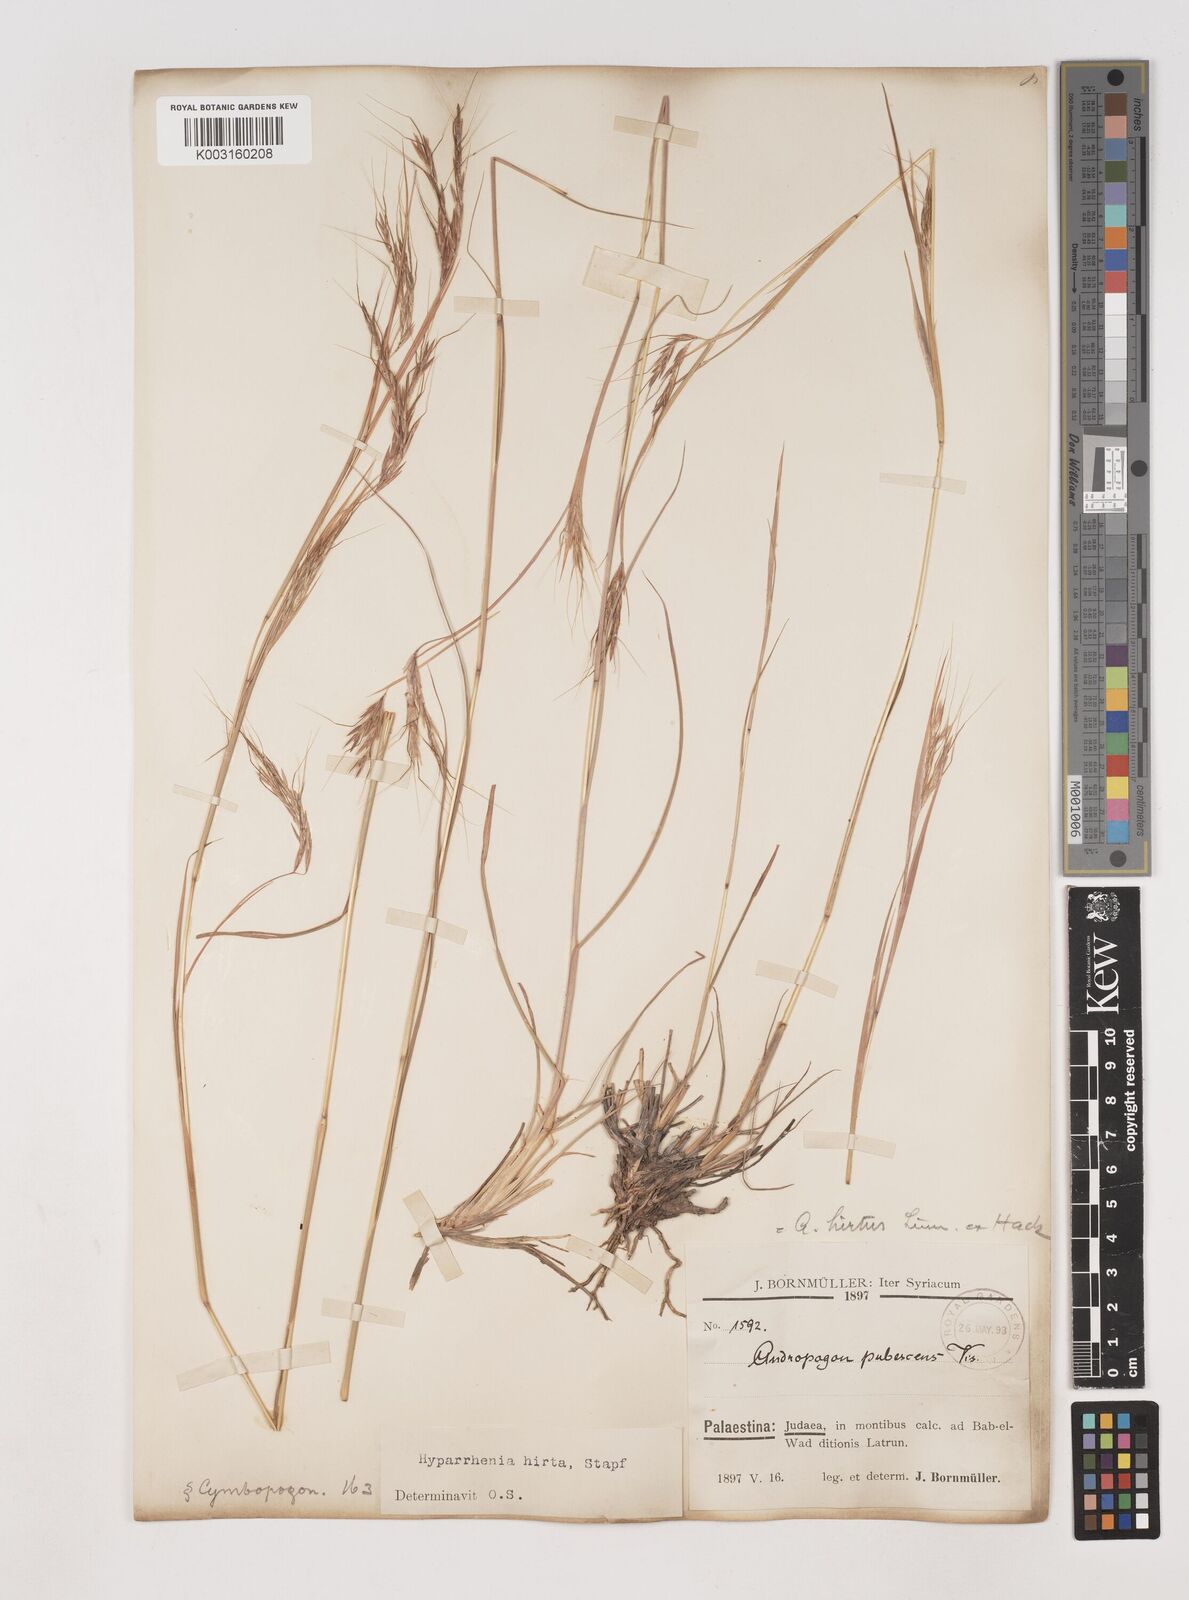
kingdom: Plantae
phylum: Tracheophyta
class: Liliopsida
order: Poales
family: Poaceae
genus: Hyparrhenia
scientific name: Hyparrhenia hirta
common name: Thatching grass
